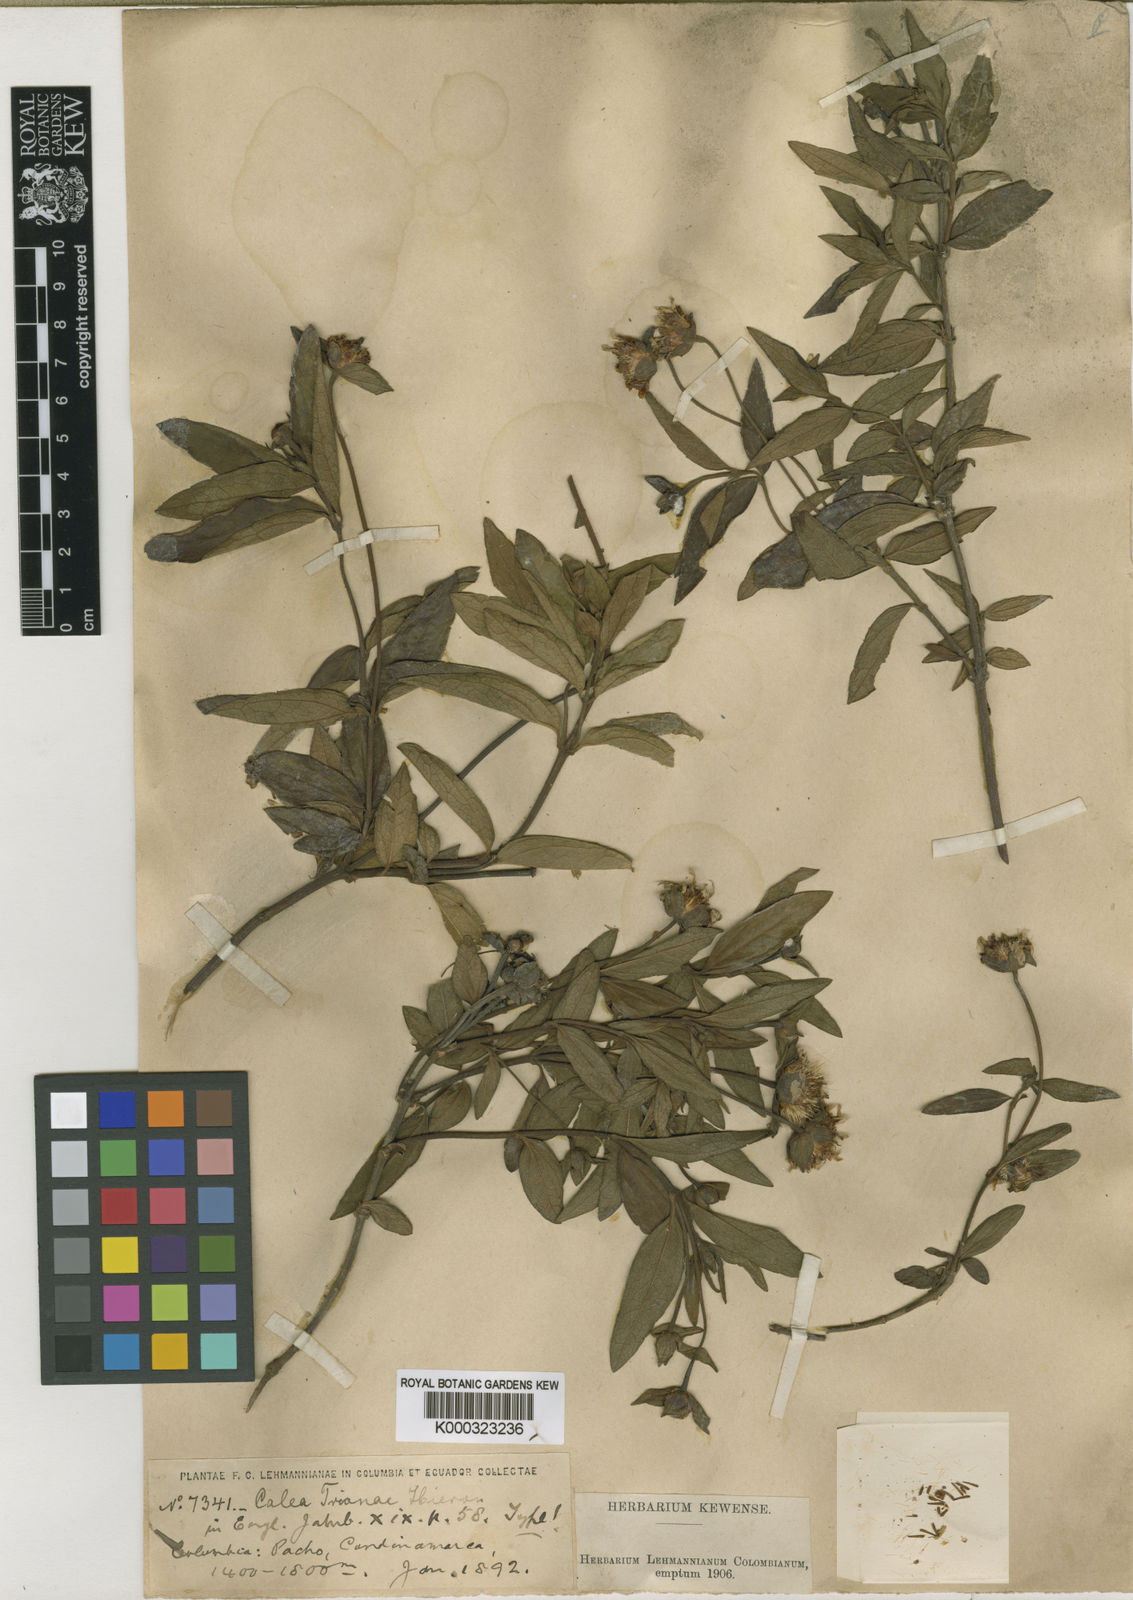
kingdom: Plantae
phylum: Tracheophyta
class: Magnoliopsida
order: Asterales
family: Asteraceae
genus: Calea
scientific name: Calea peruviana
